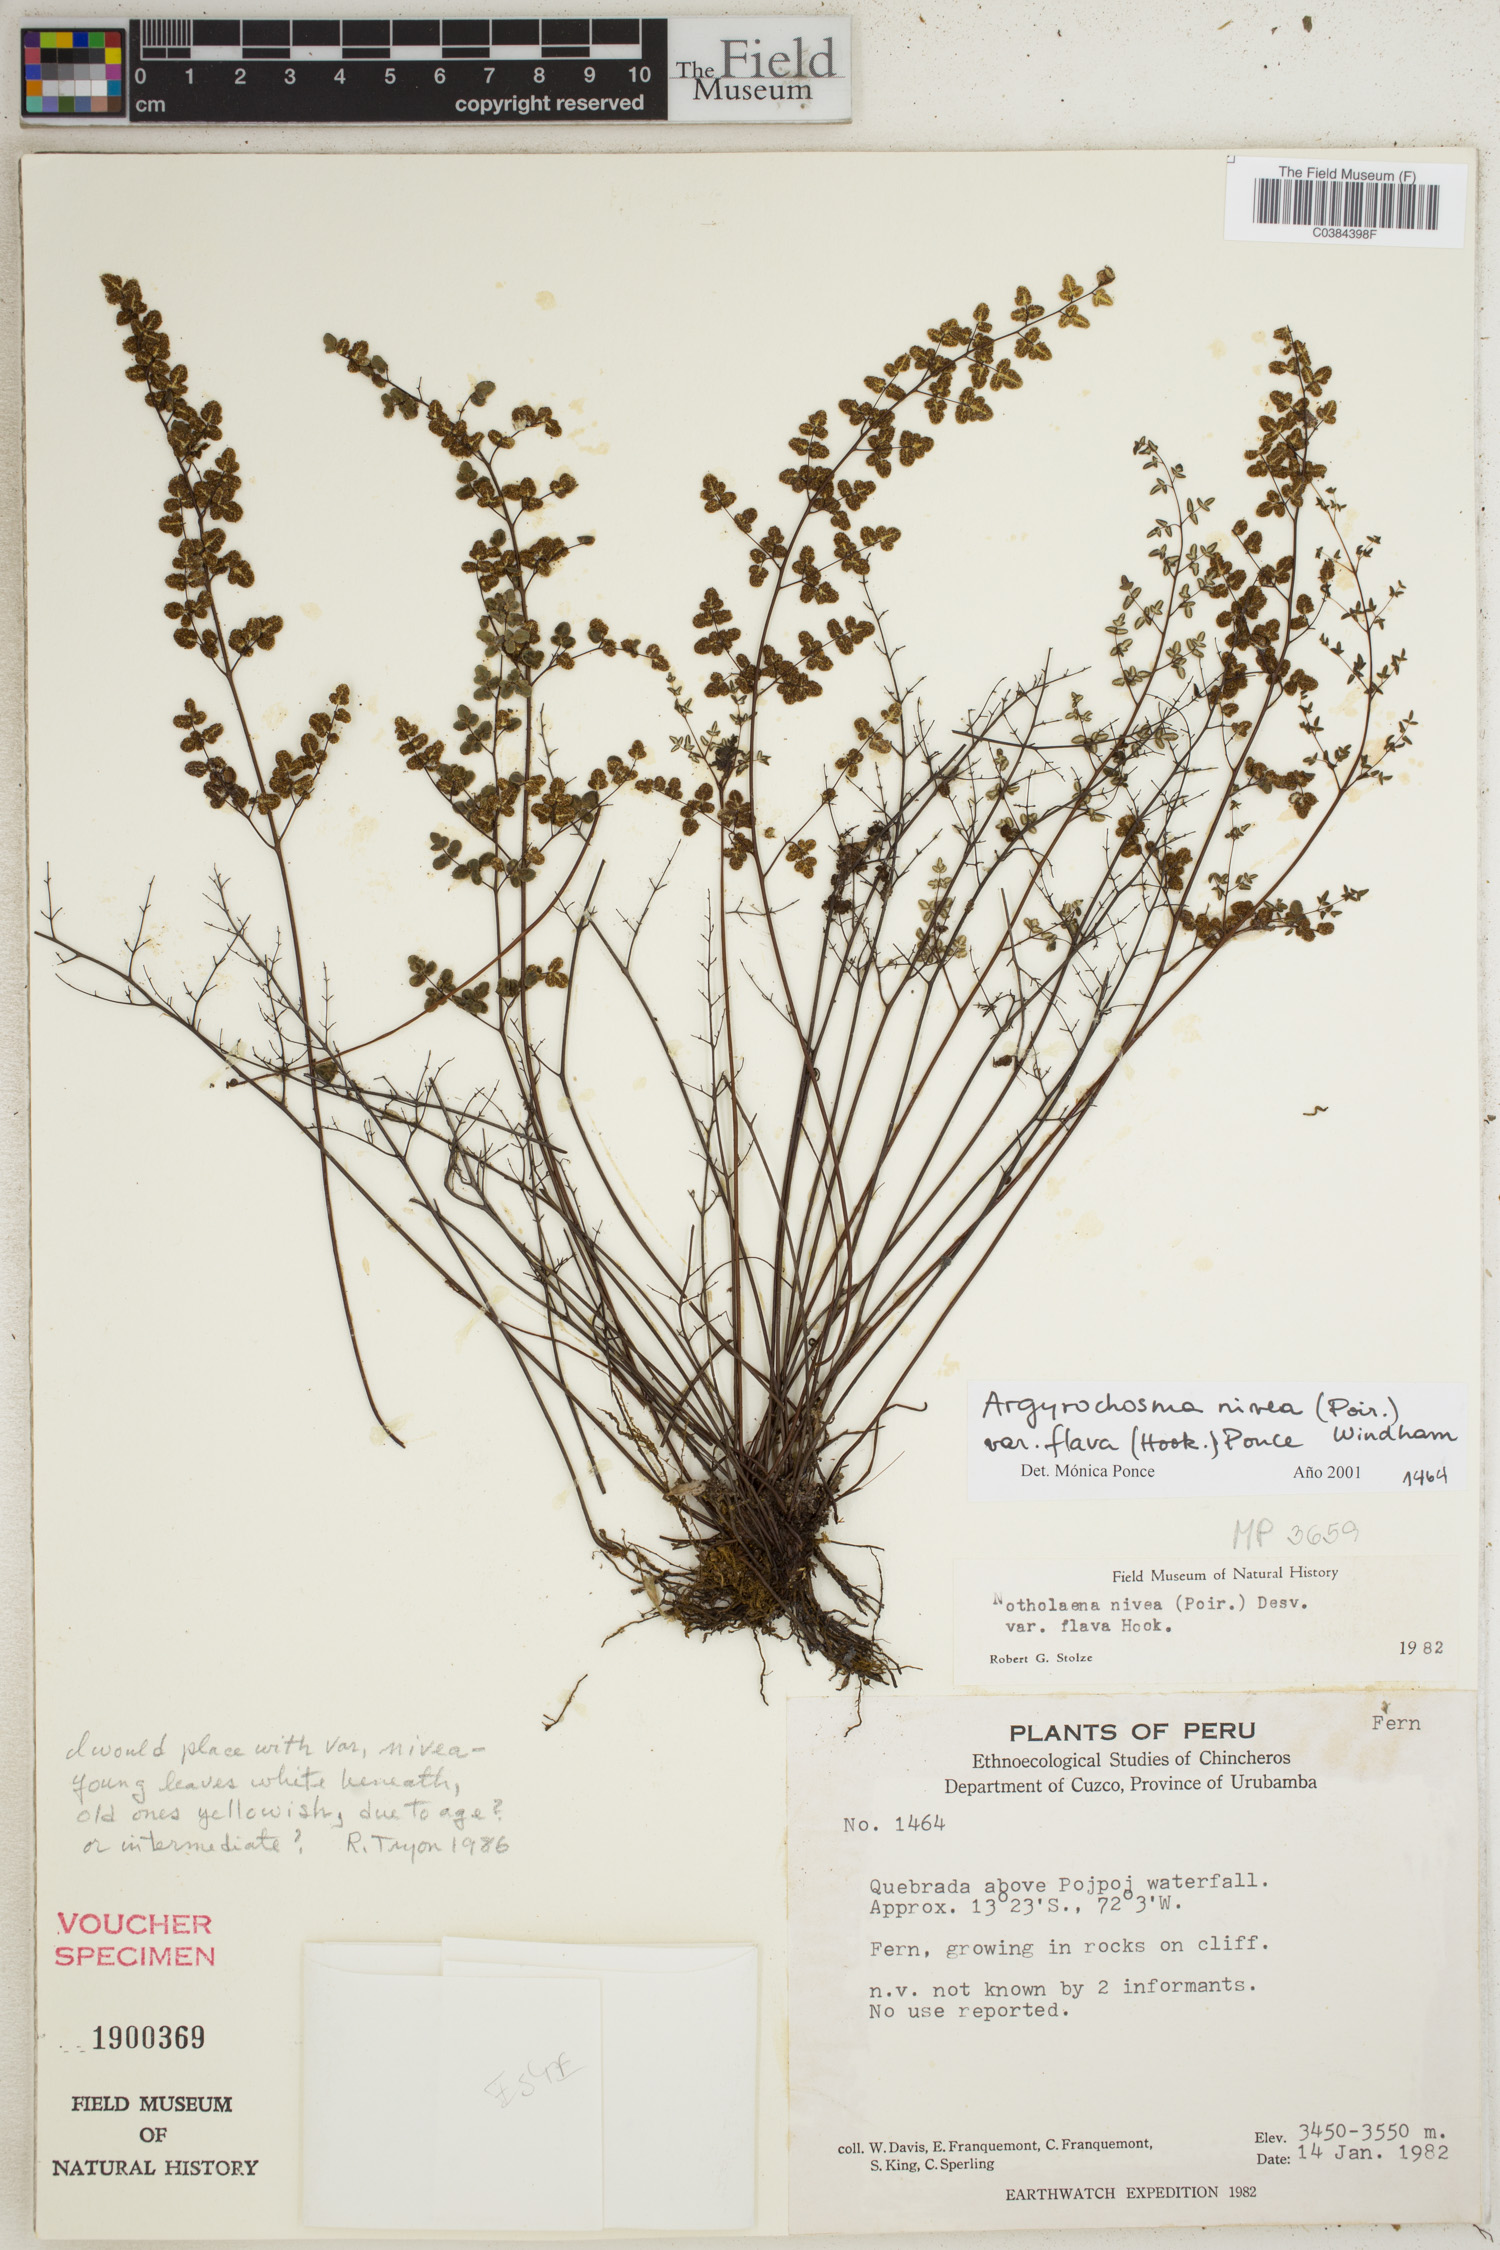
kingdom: Plantae
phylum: Tracheophyta
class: Polypodiopsida
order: Polypodiales
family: Pteridaceae
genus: Argyrochosma
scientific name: Argyrochosma nivea
